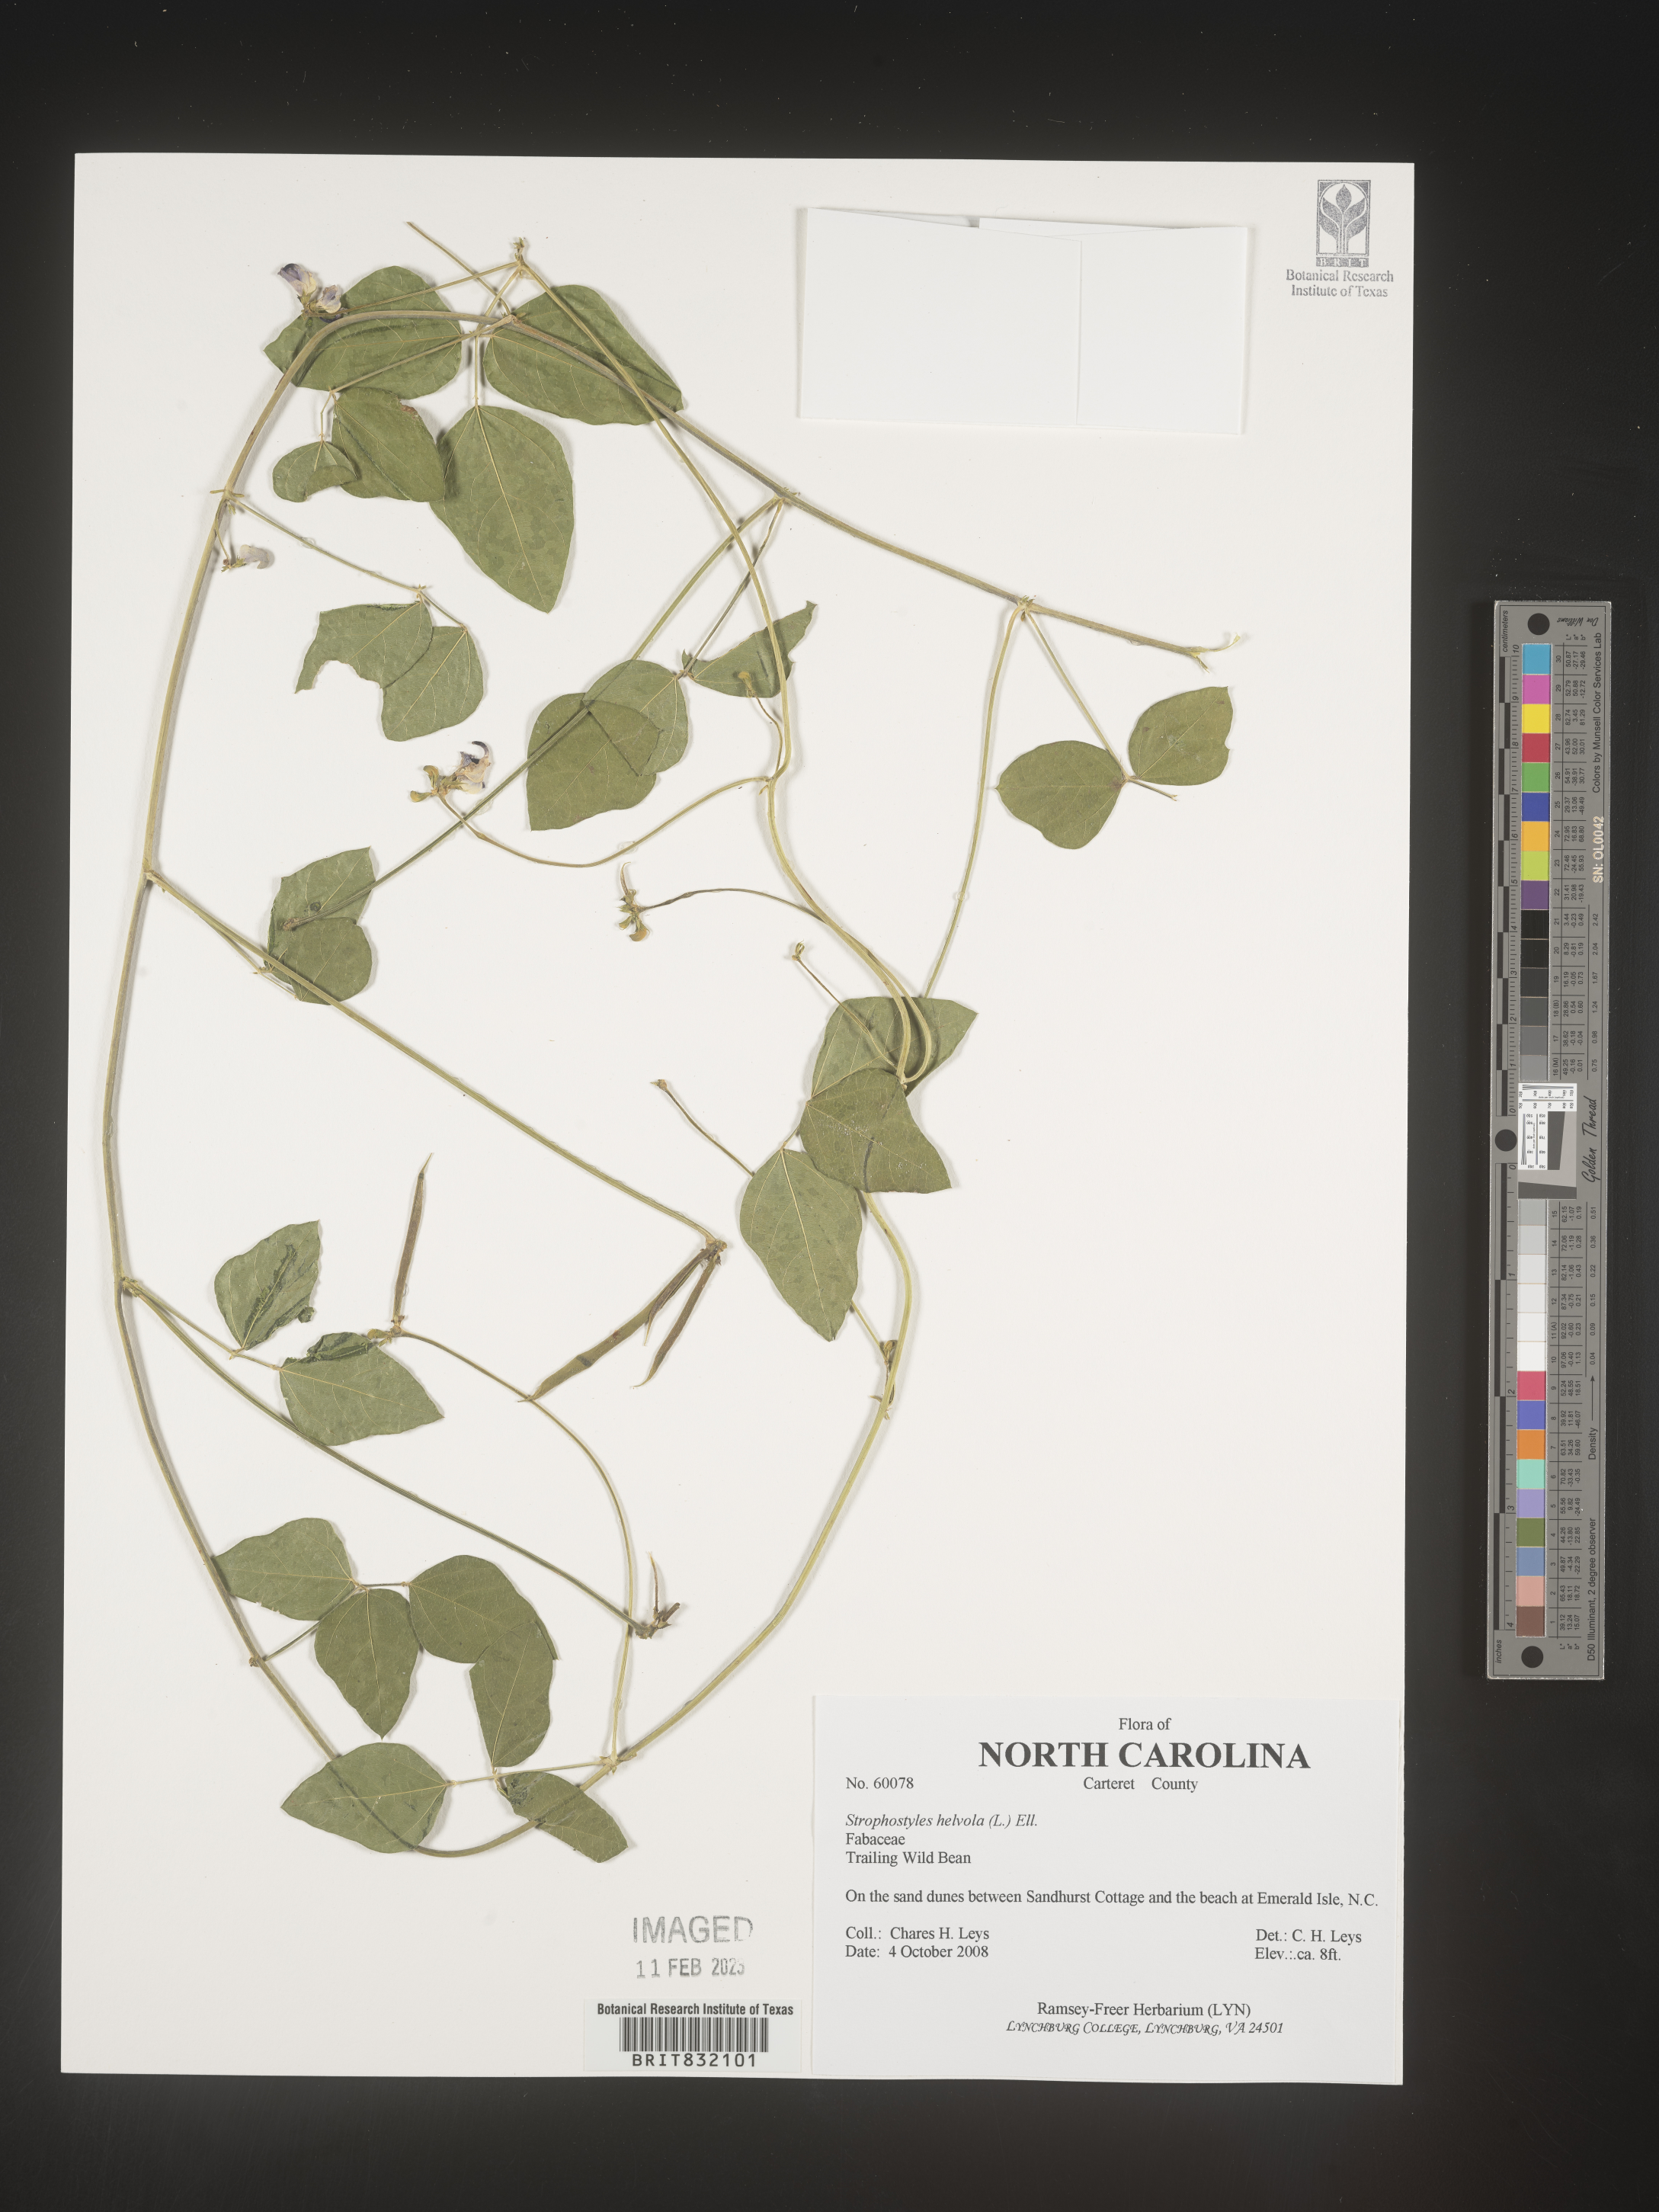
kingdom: Plantae
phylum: Tracheophyta
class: Magnoliopsida
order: Fabales
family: Fabaceae
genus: Strophostyles
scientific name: Strophostyles helvola
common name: Trailing wild bean
